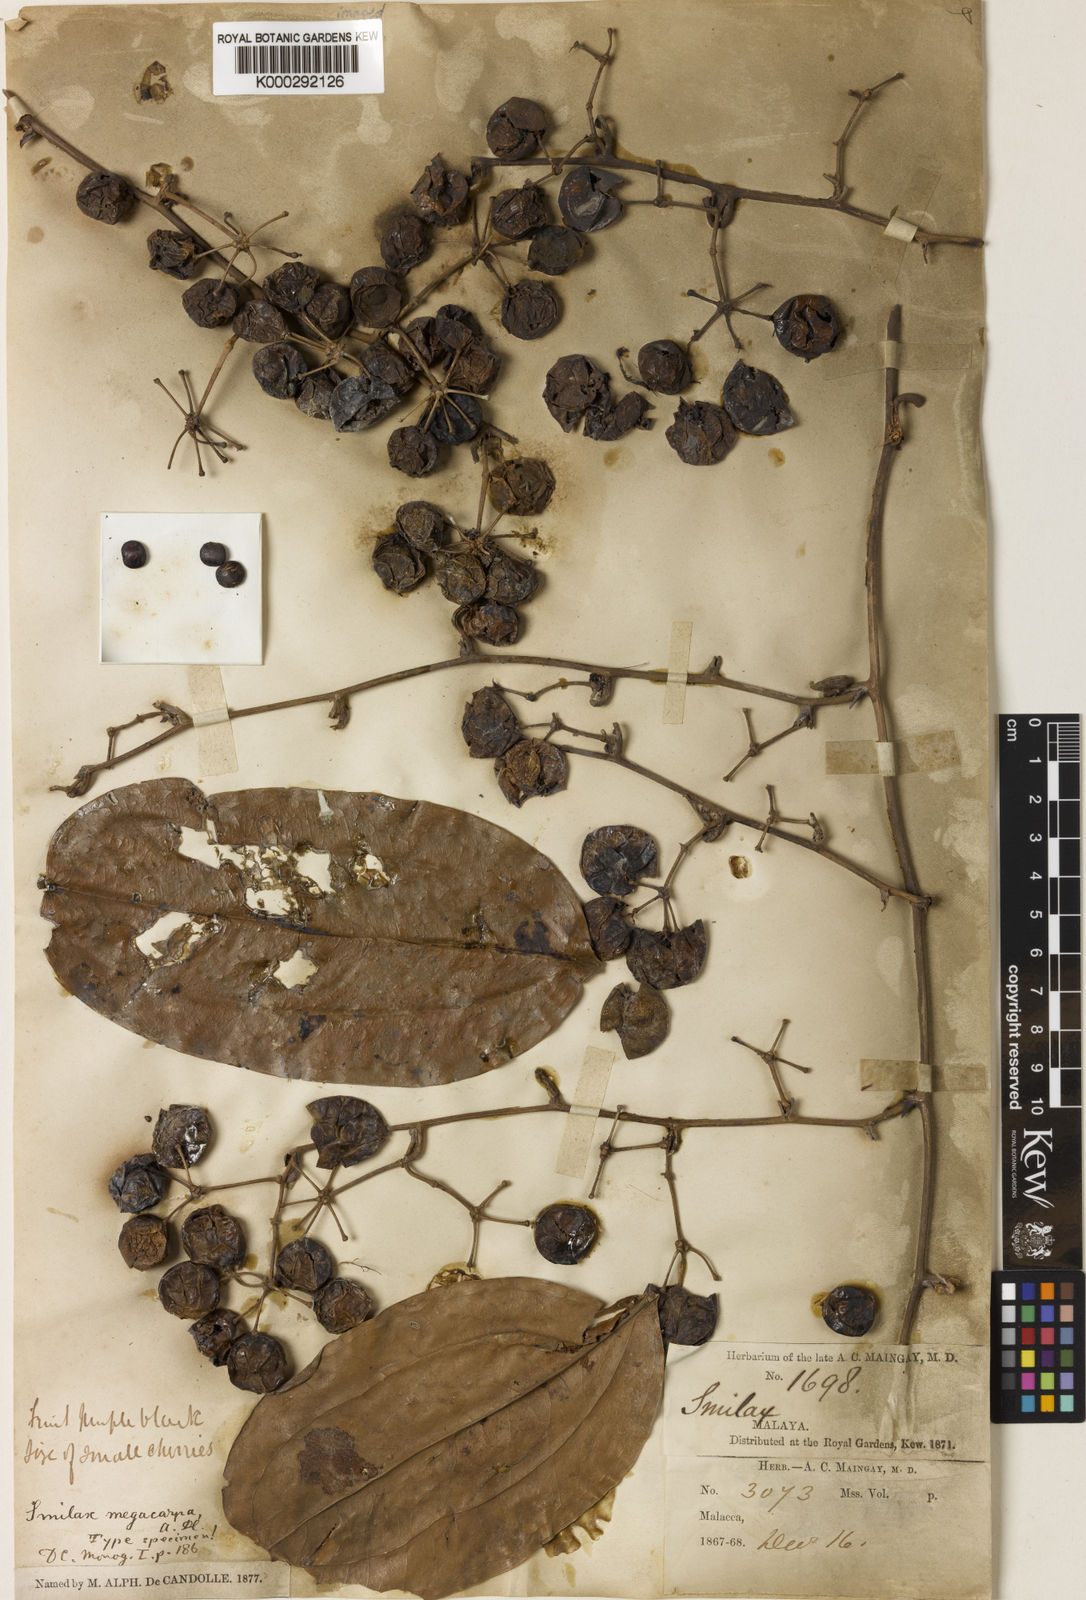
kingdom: Plantae
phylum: Tracheophyta
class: Liliopsida
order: Liliales
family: Smilacaceae
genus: Smilax
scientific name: Smilax megacarpa
